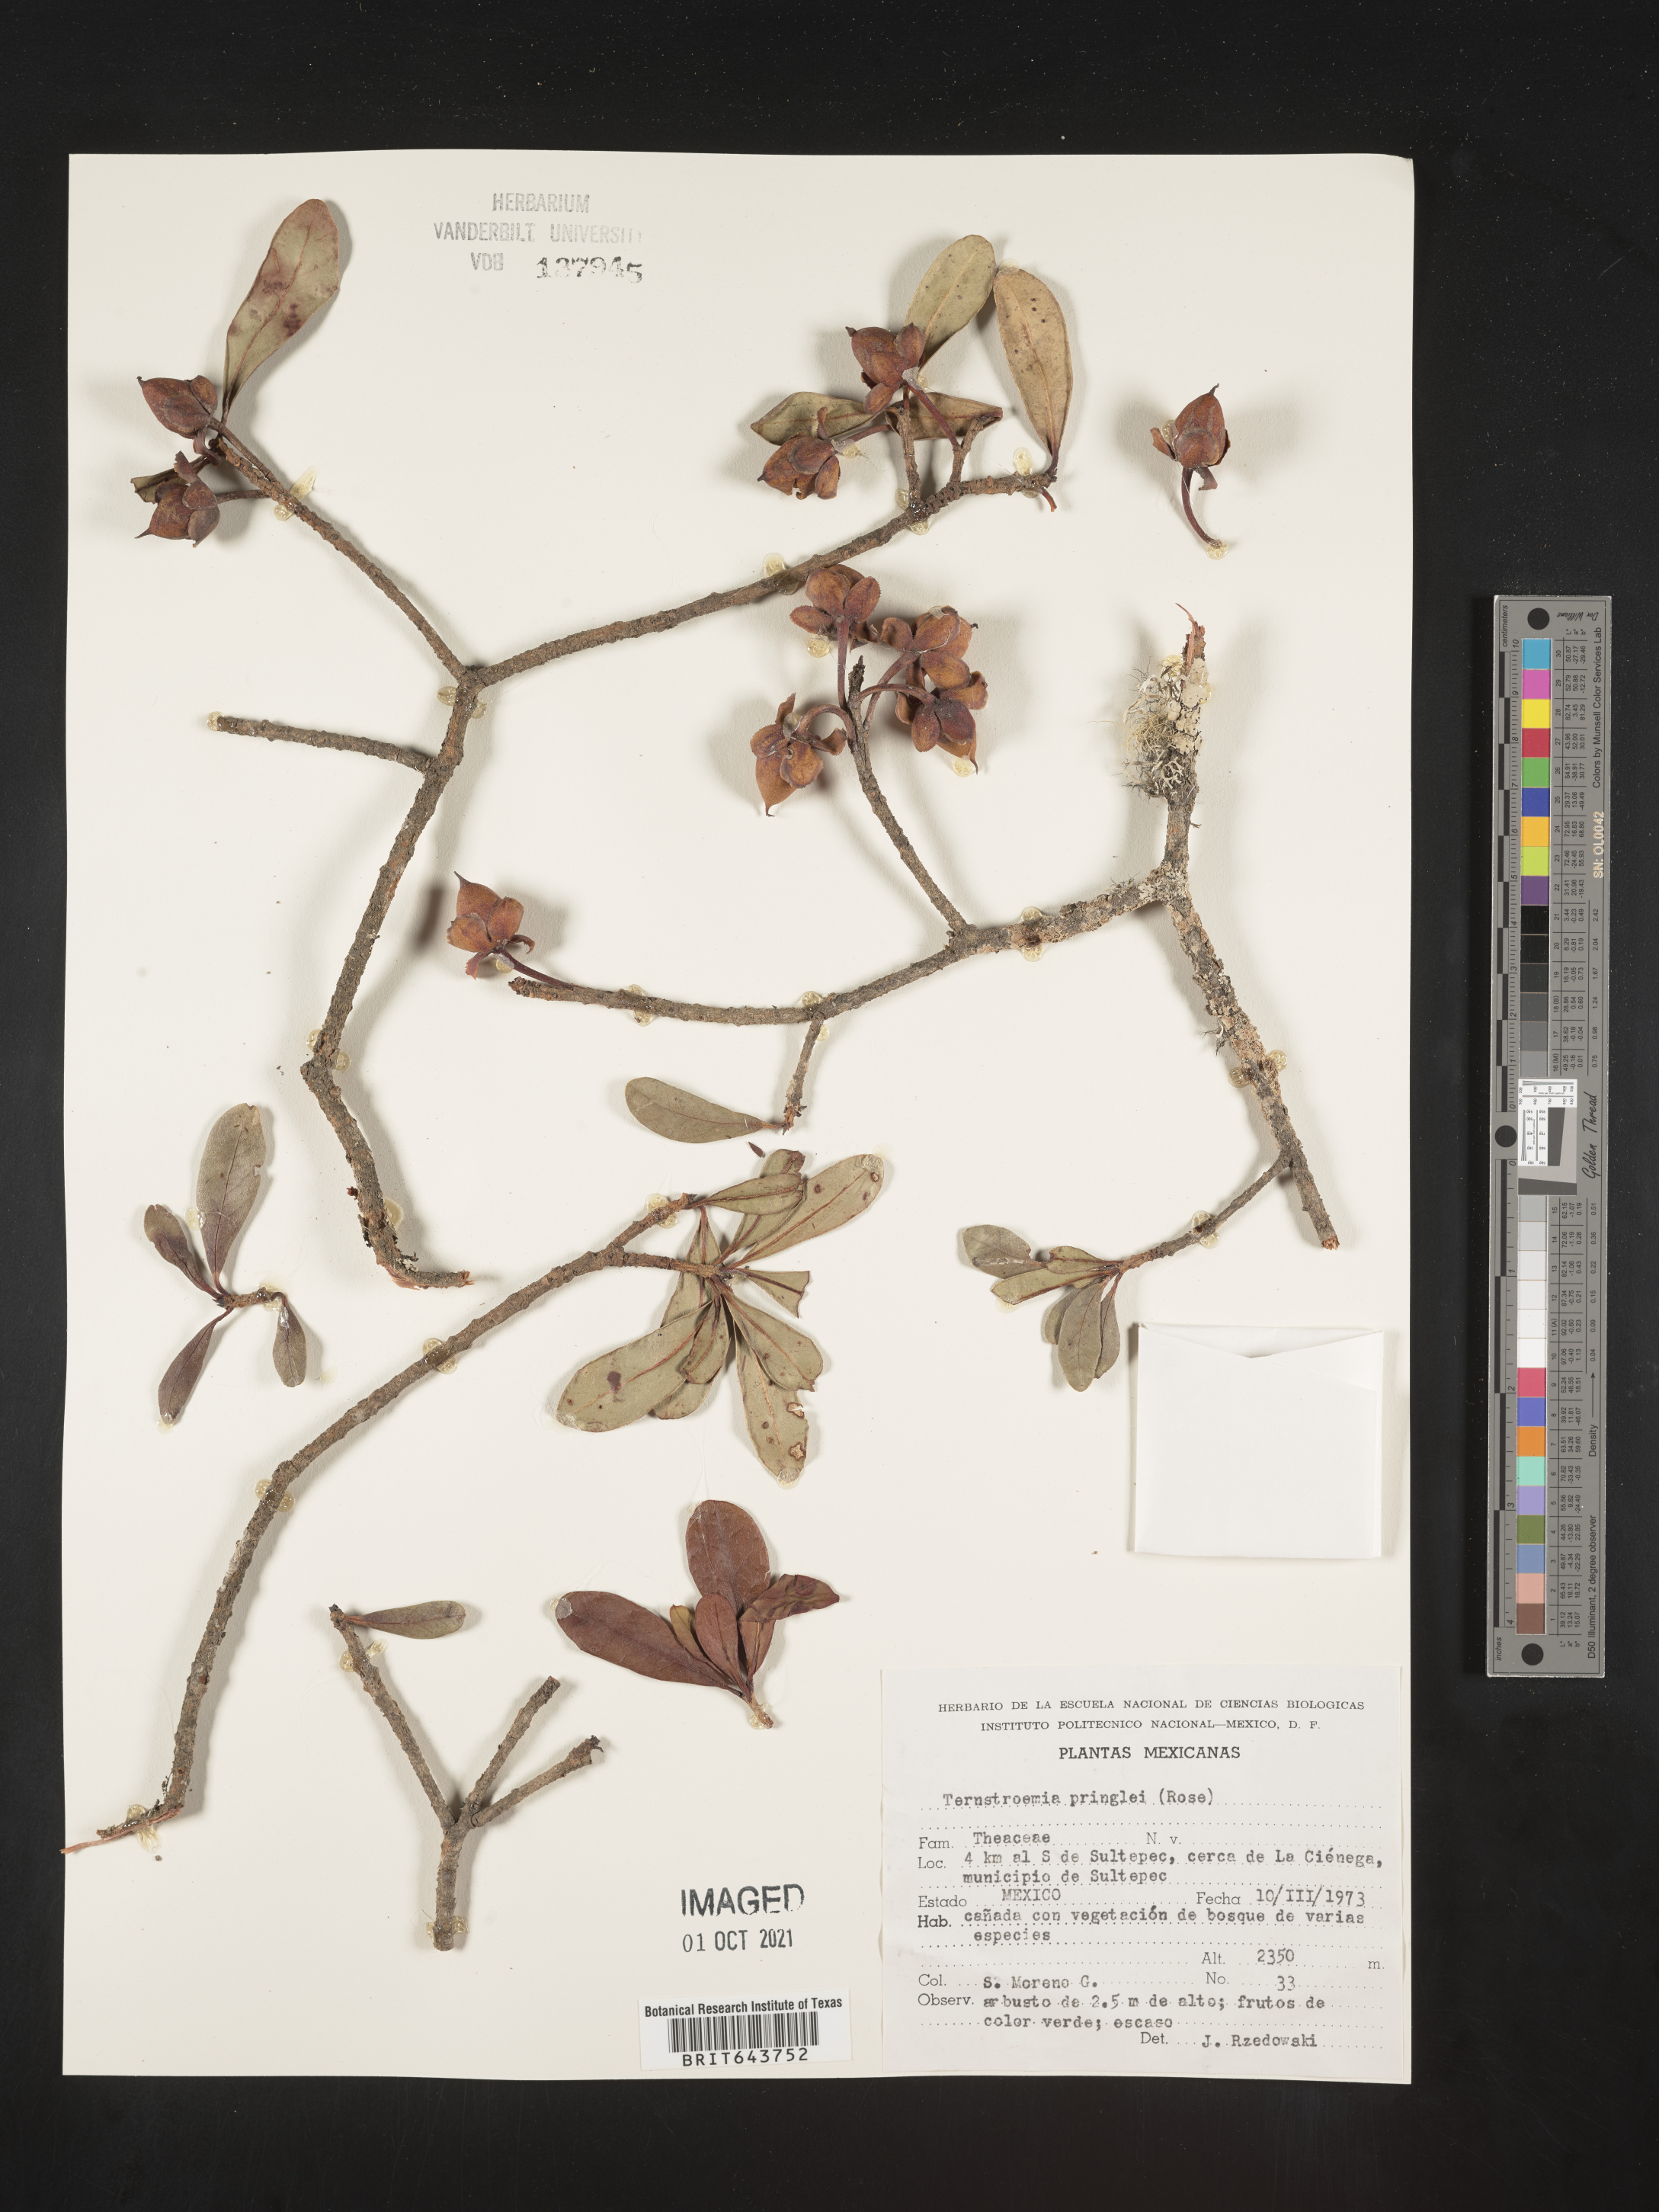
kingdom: Plantae
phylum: Tracheophyta
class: Magnoliopsida
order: Ericales
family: Pentaphylacaceae
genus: Ternstroemia
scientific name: Ternstroemia
